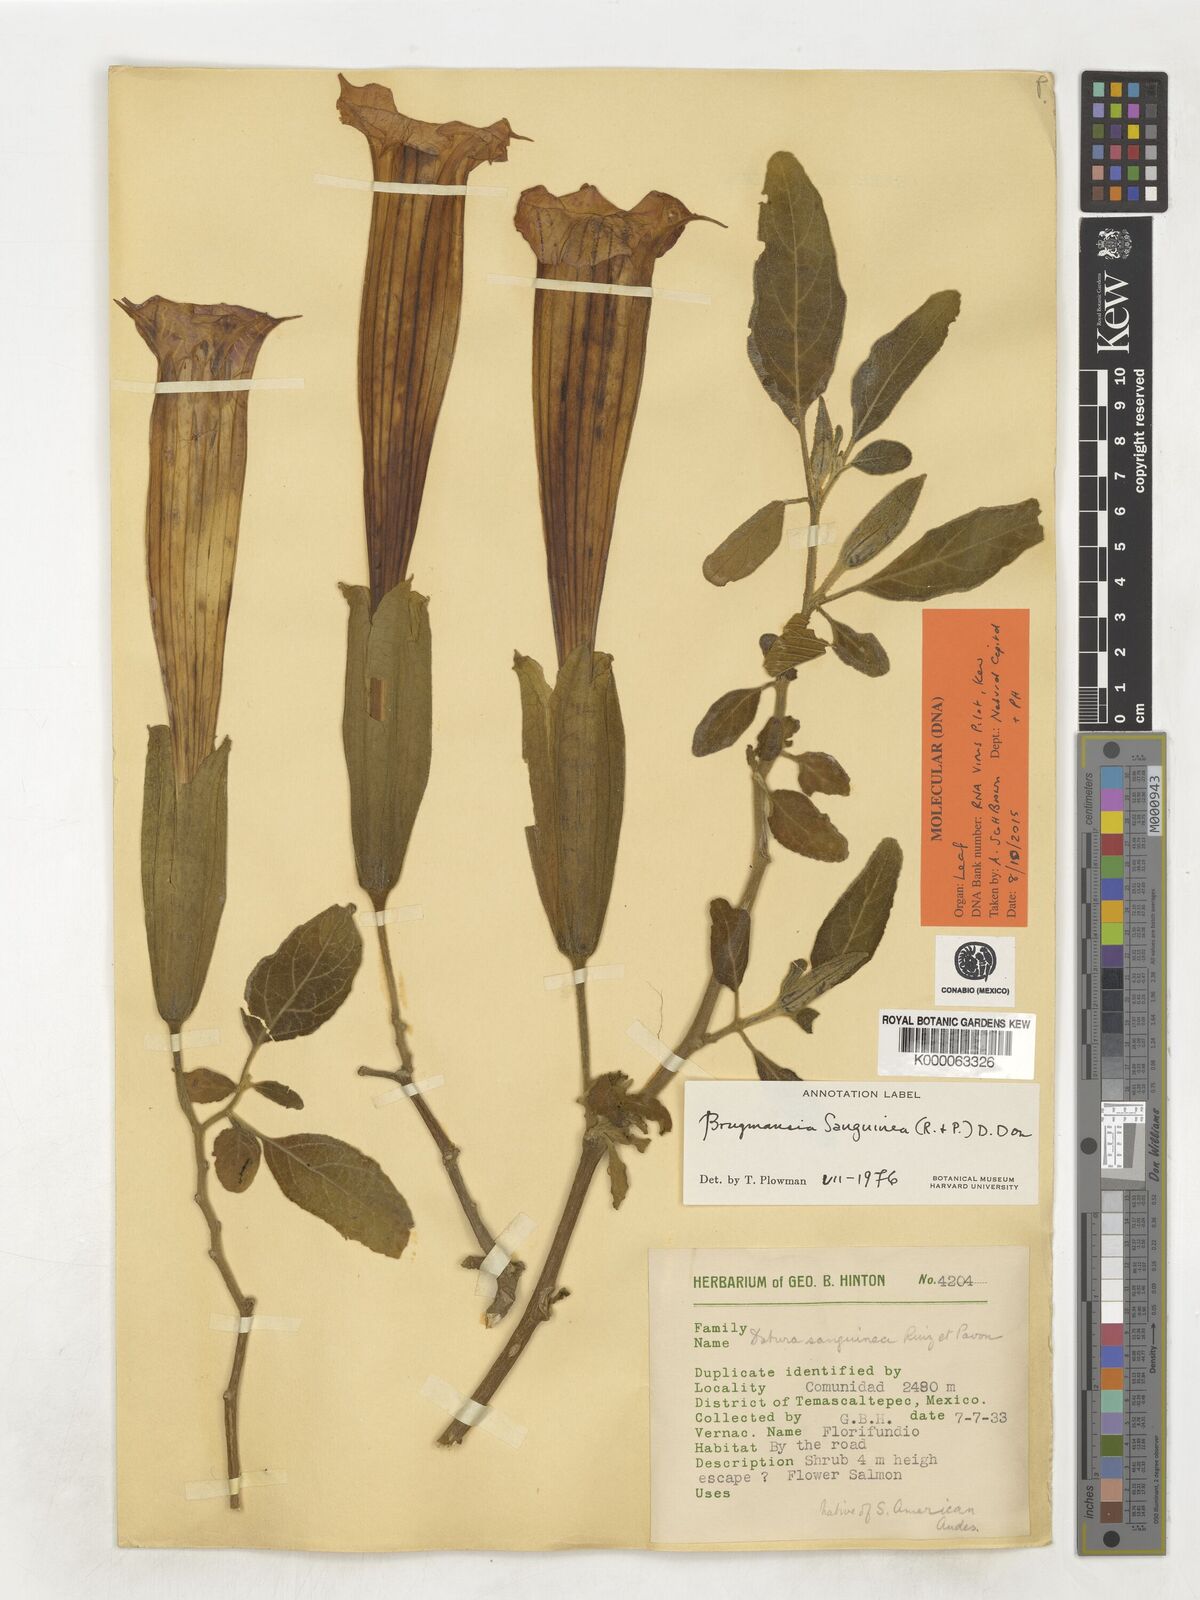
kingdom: Plantae
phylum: Tracheophyta
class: Magnoliopsida
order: Solanales
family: Solanaceae
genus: Brugmansia
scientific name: Brugmansia sanguinea
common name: Red floripontio
